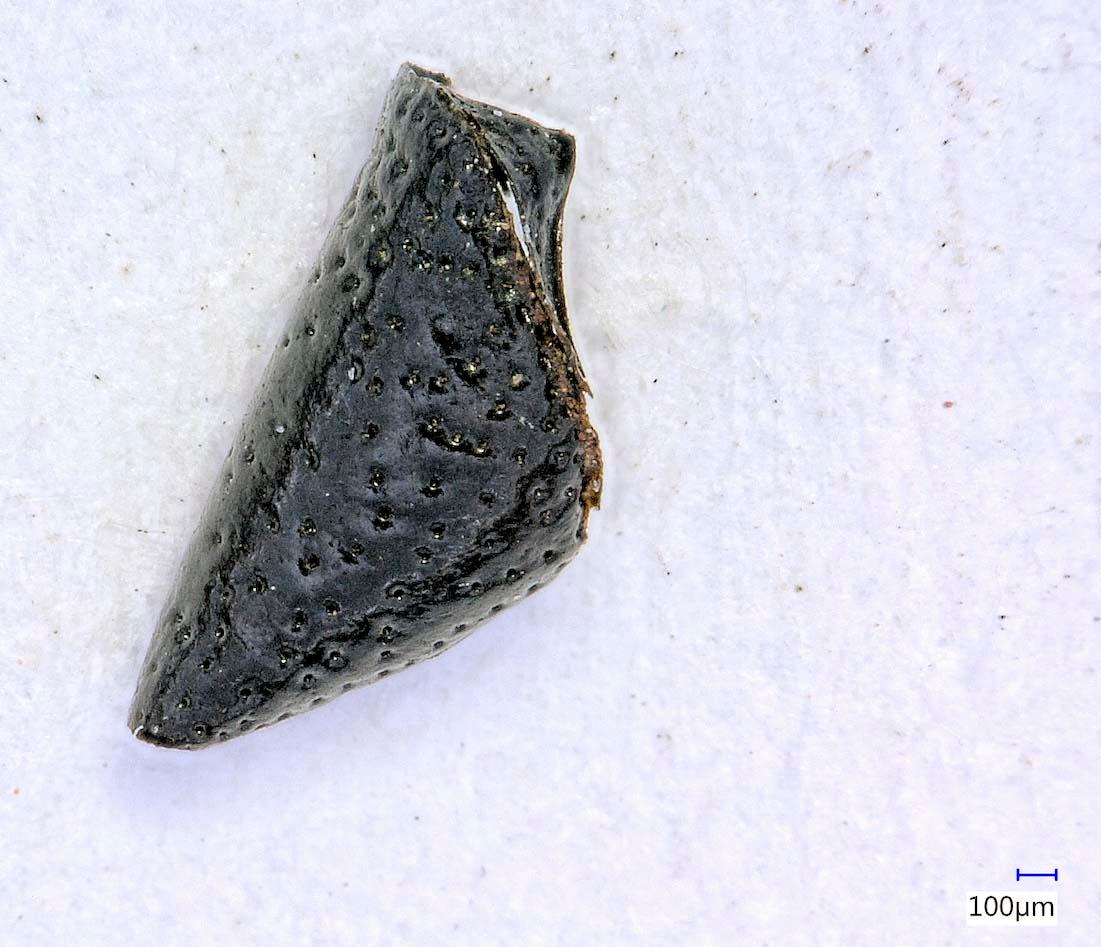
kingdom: Animalia
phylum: Arthropoda
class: Insecta
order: Coleoptera
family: Carabidae
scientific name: Carabidae
